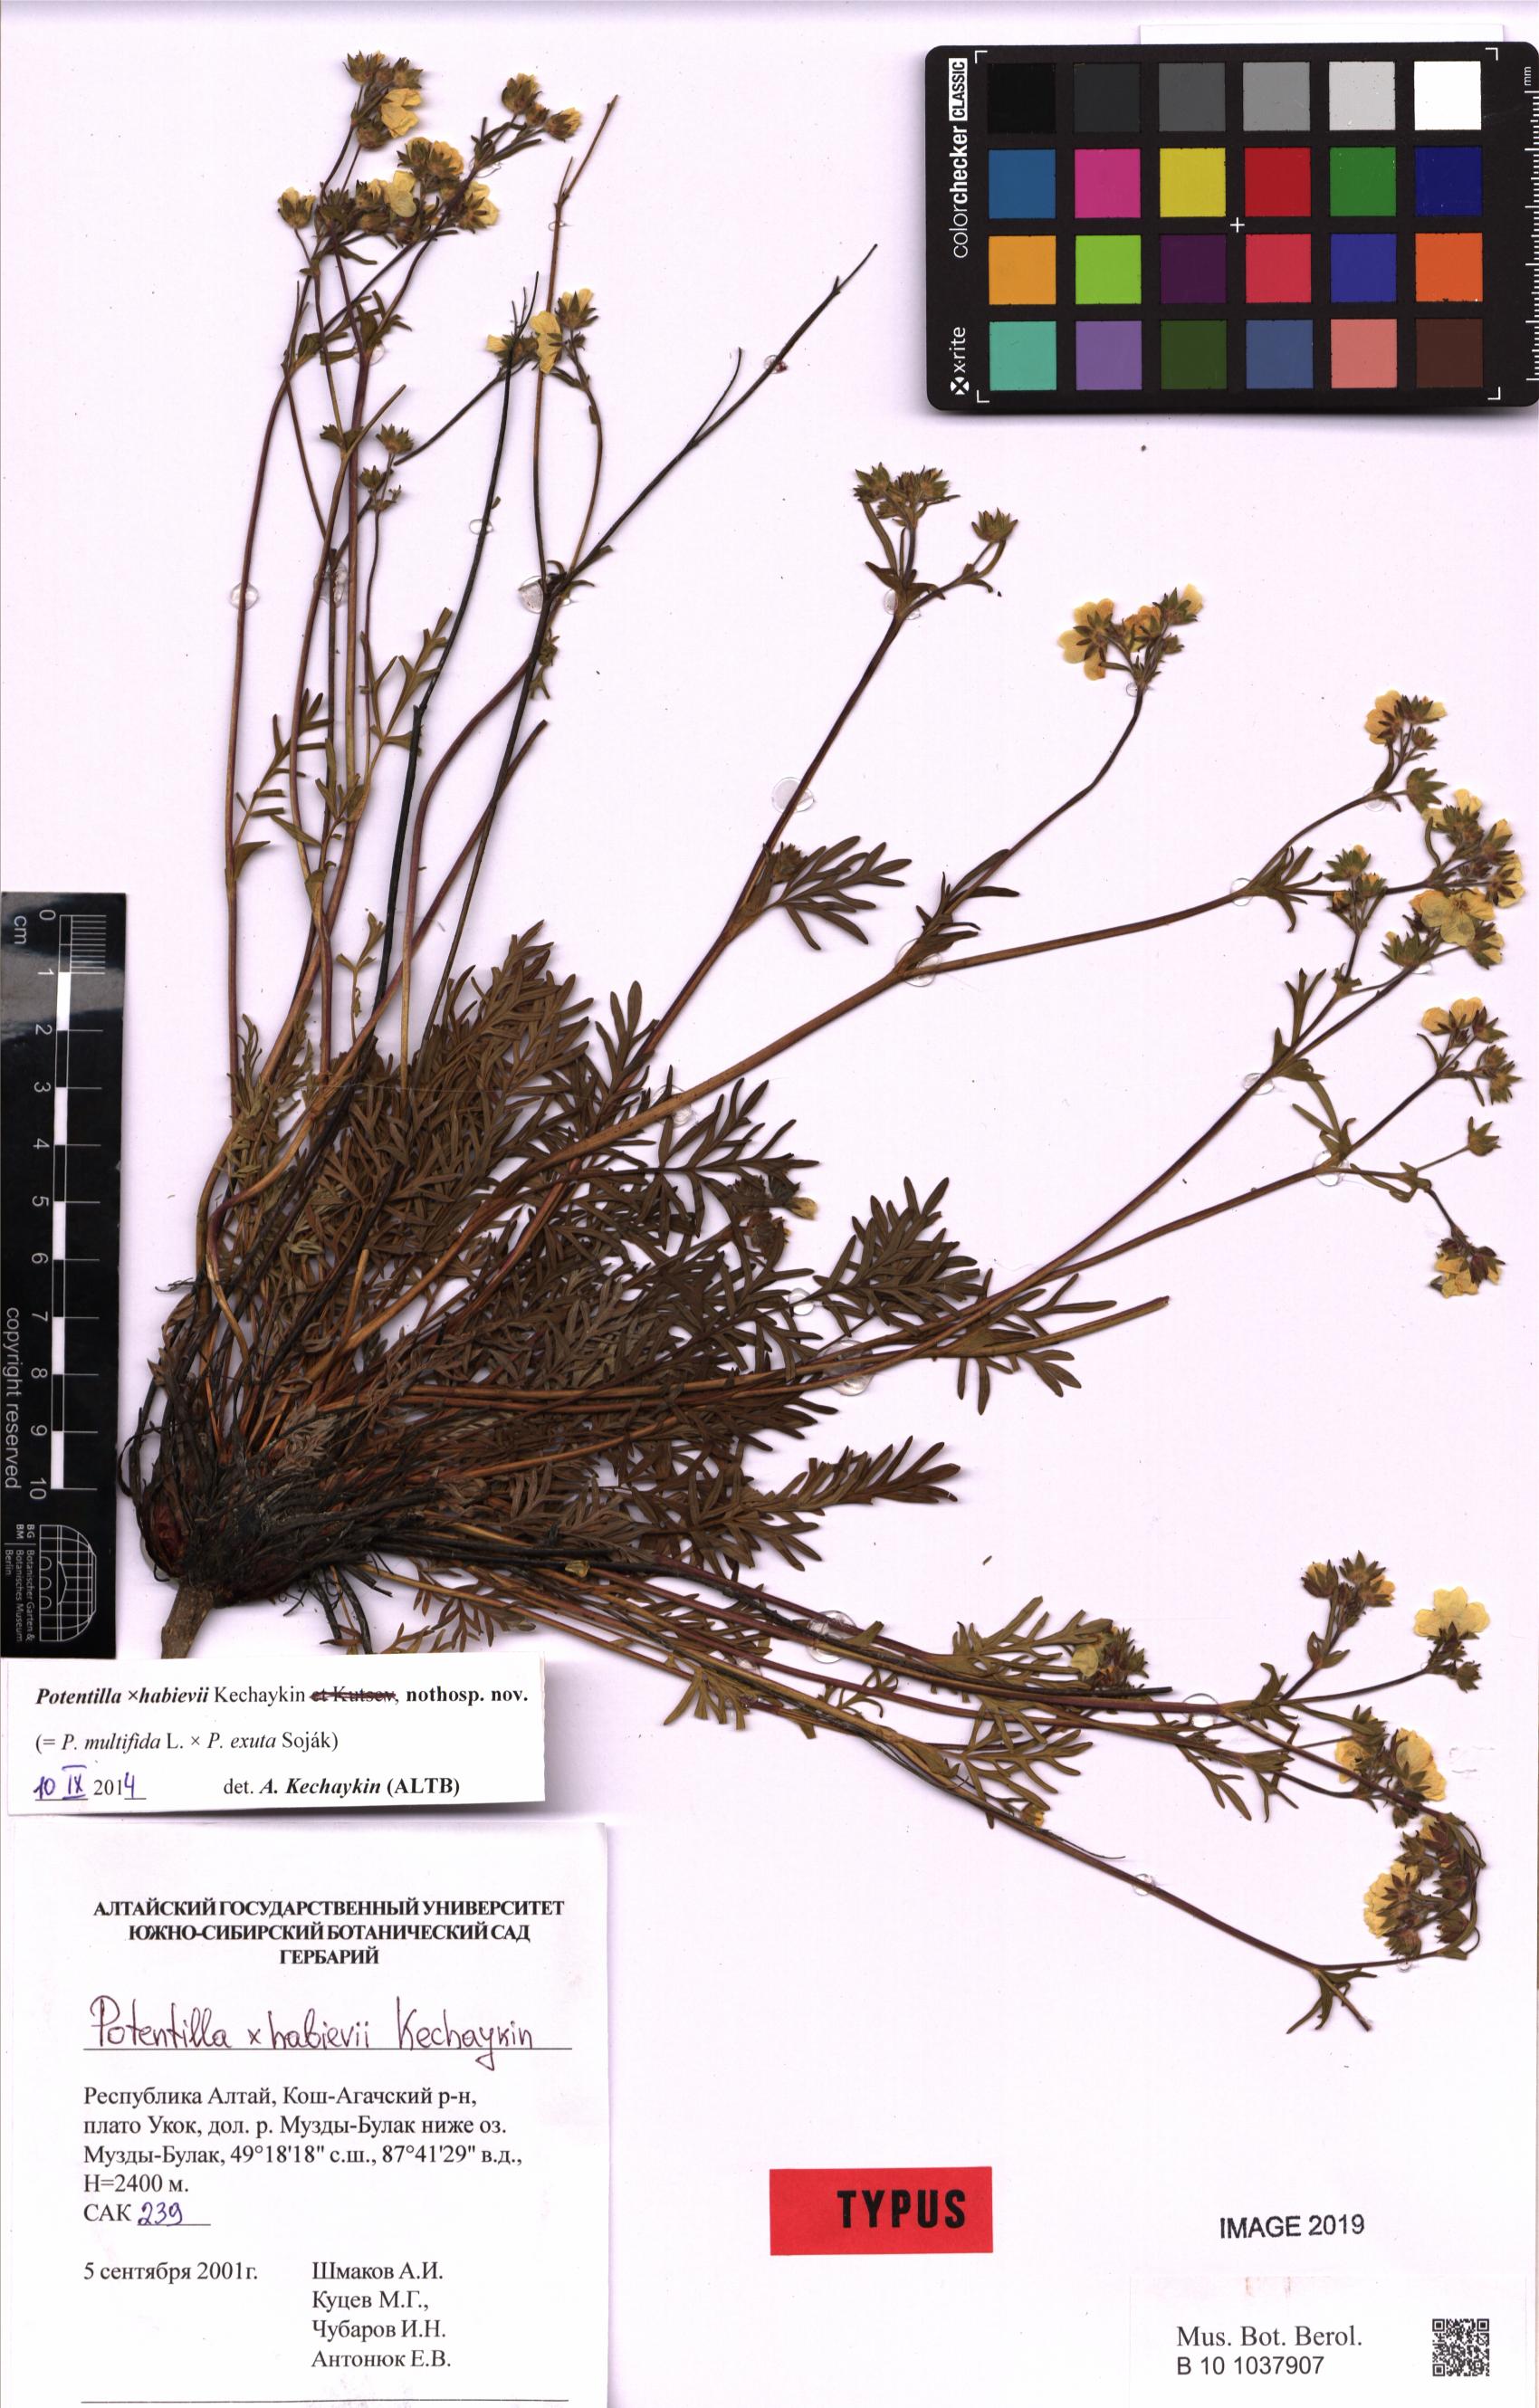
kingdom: Plantae
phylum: Tracheophyta
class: Magnoliopsida
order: Rosales
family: Rosaceae
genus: Potentilla
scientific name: Potentilla habievii
